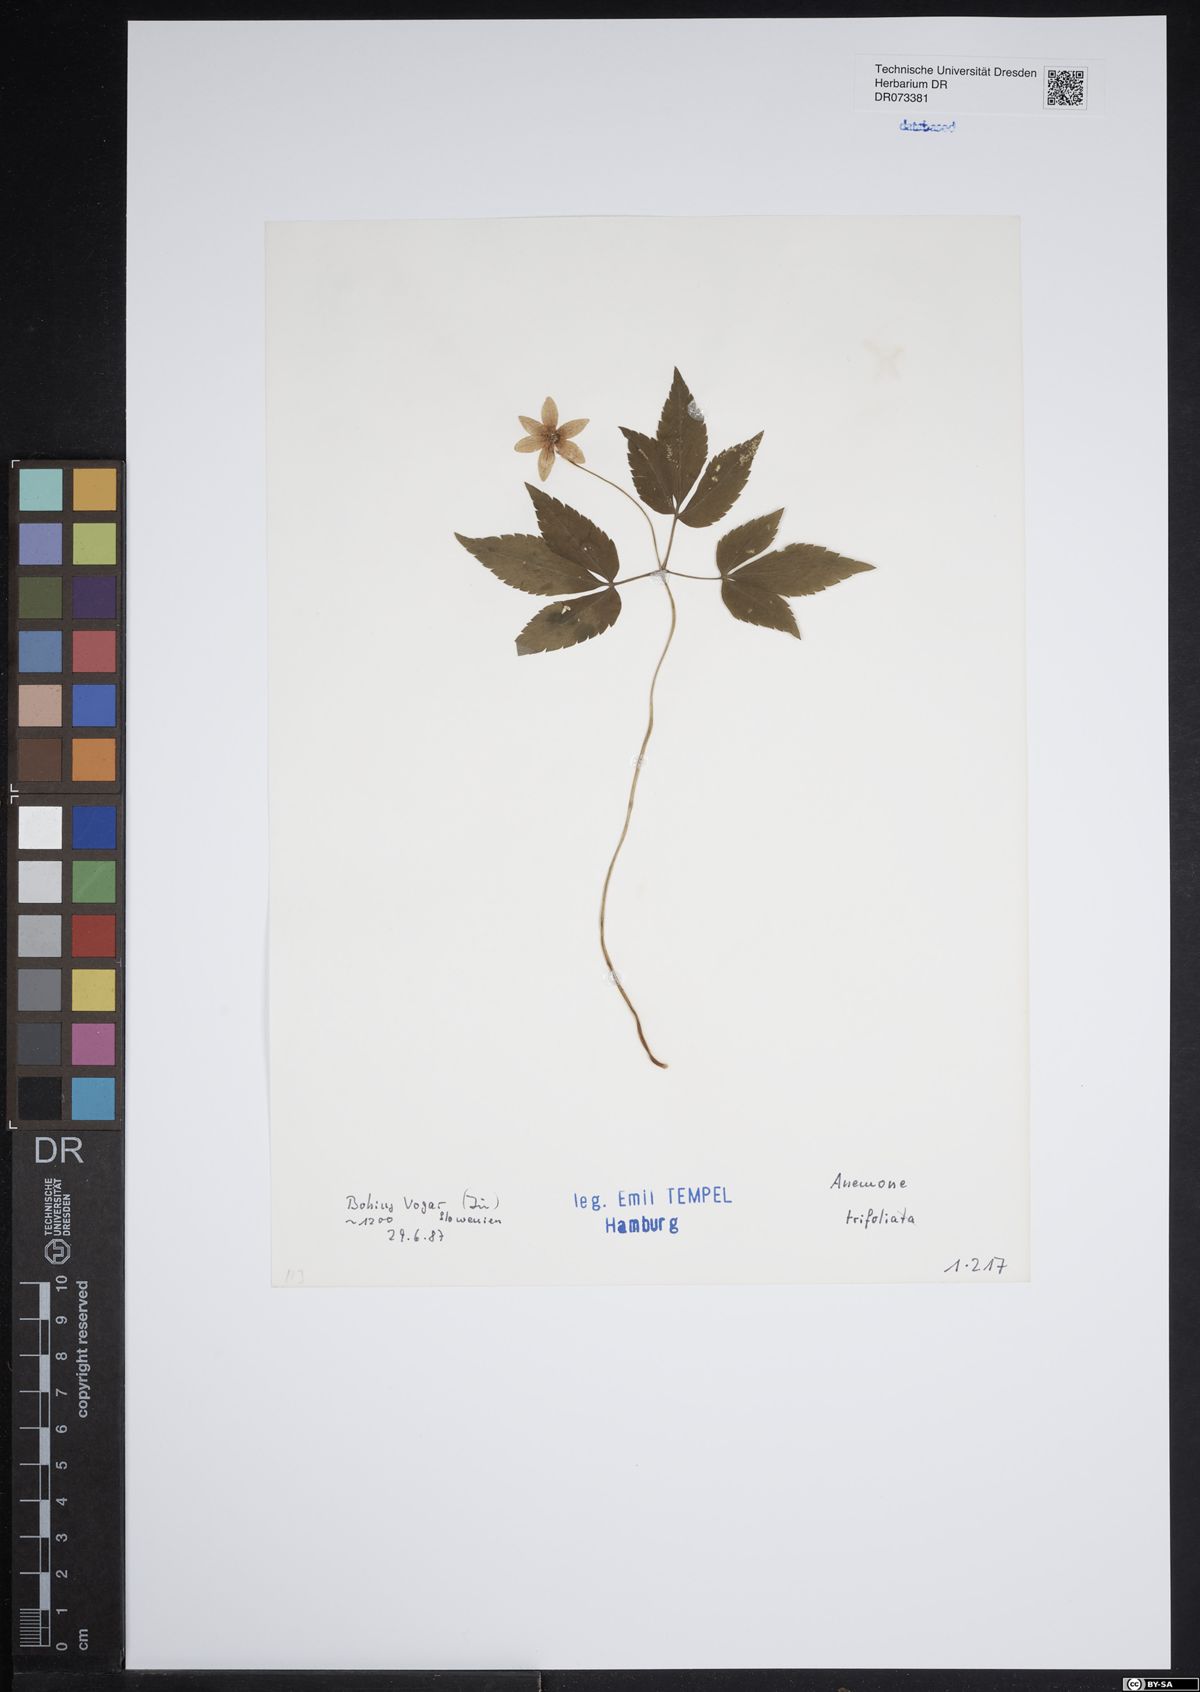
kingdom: Plantae
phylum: Tracheophyta
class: Magnoliopsida
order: Ranunculales
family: Ranunculaceae
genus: Anemone
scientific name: Anemone trifolia
